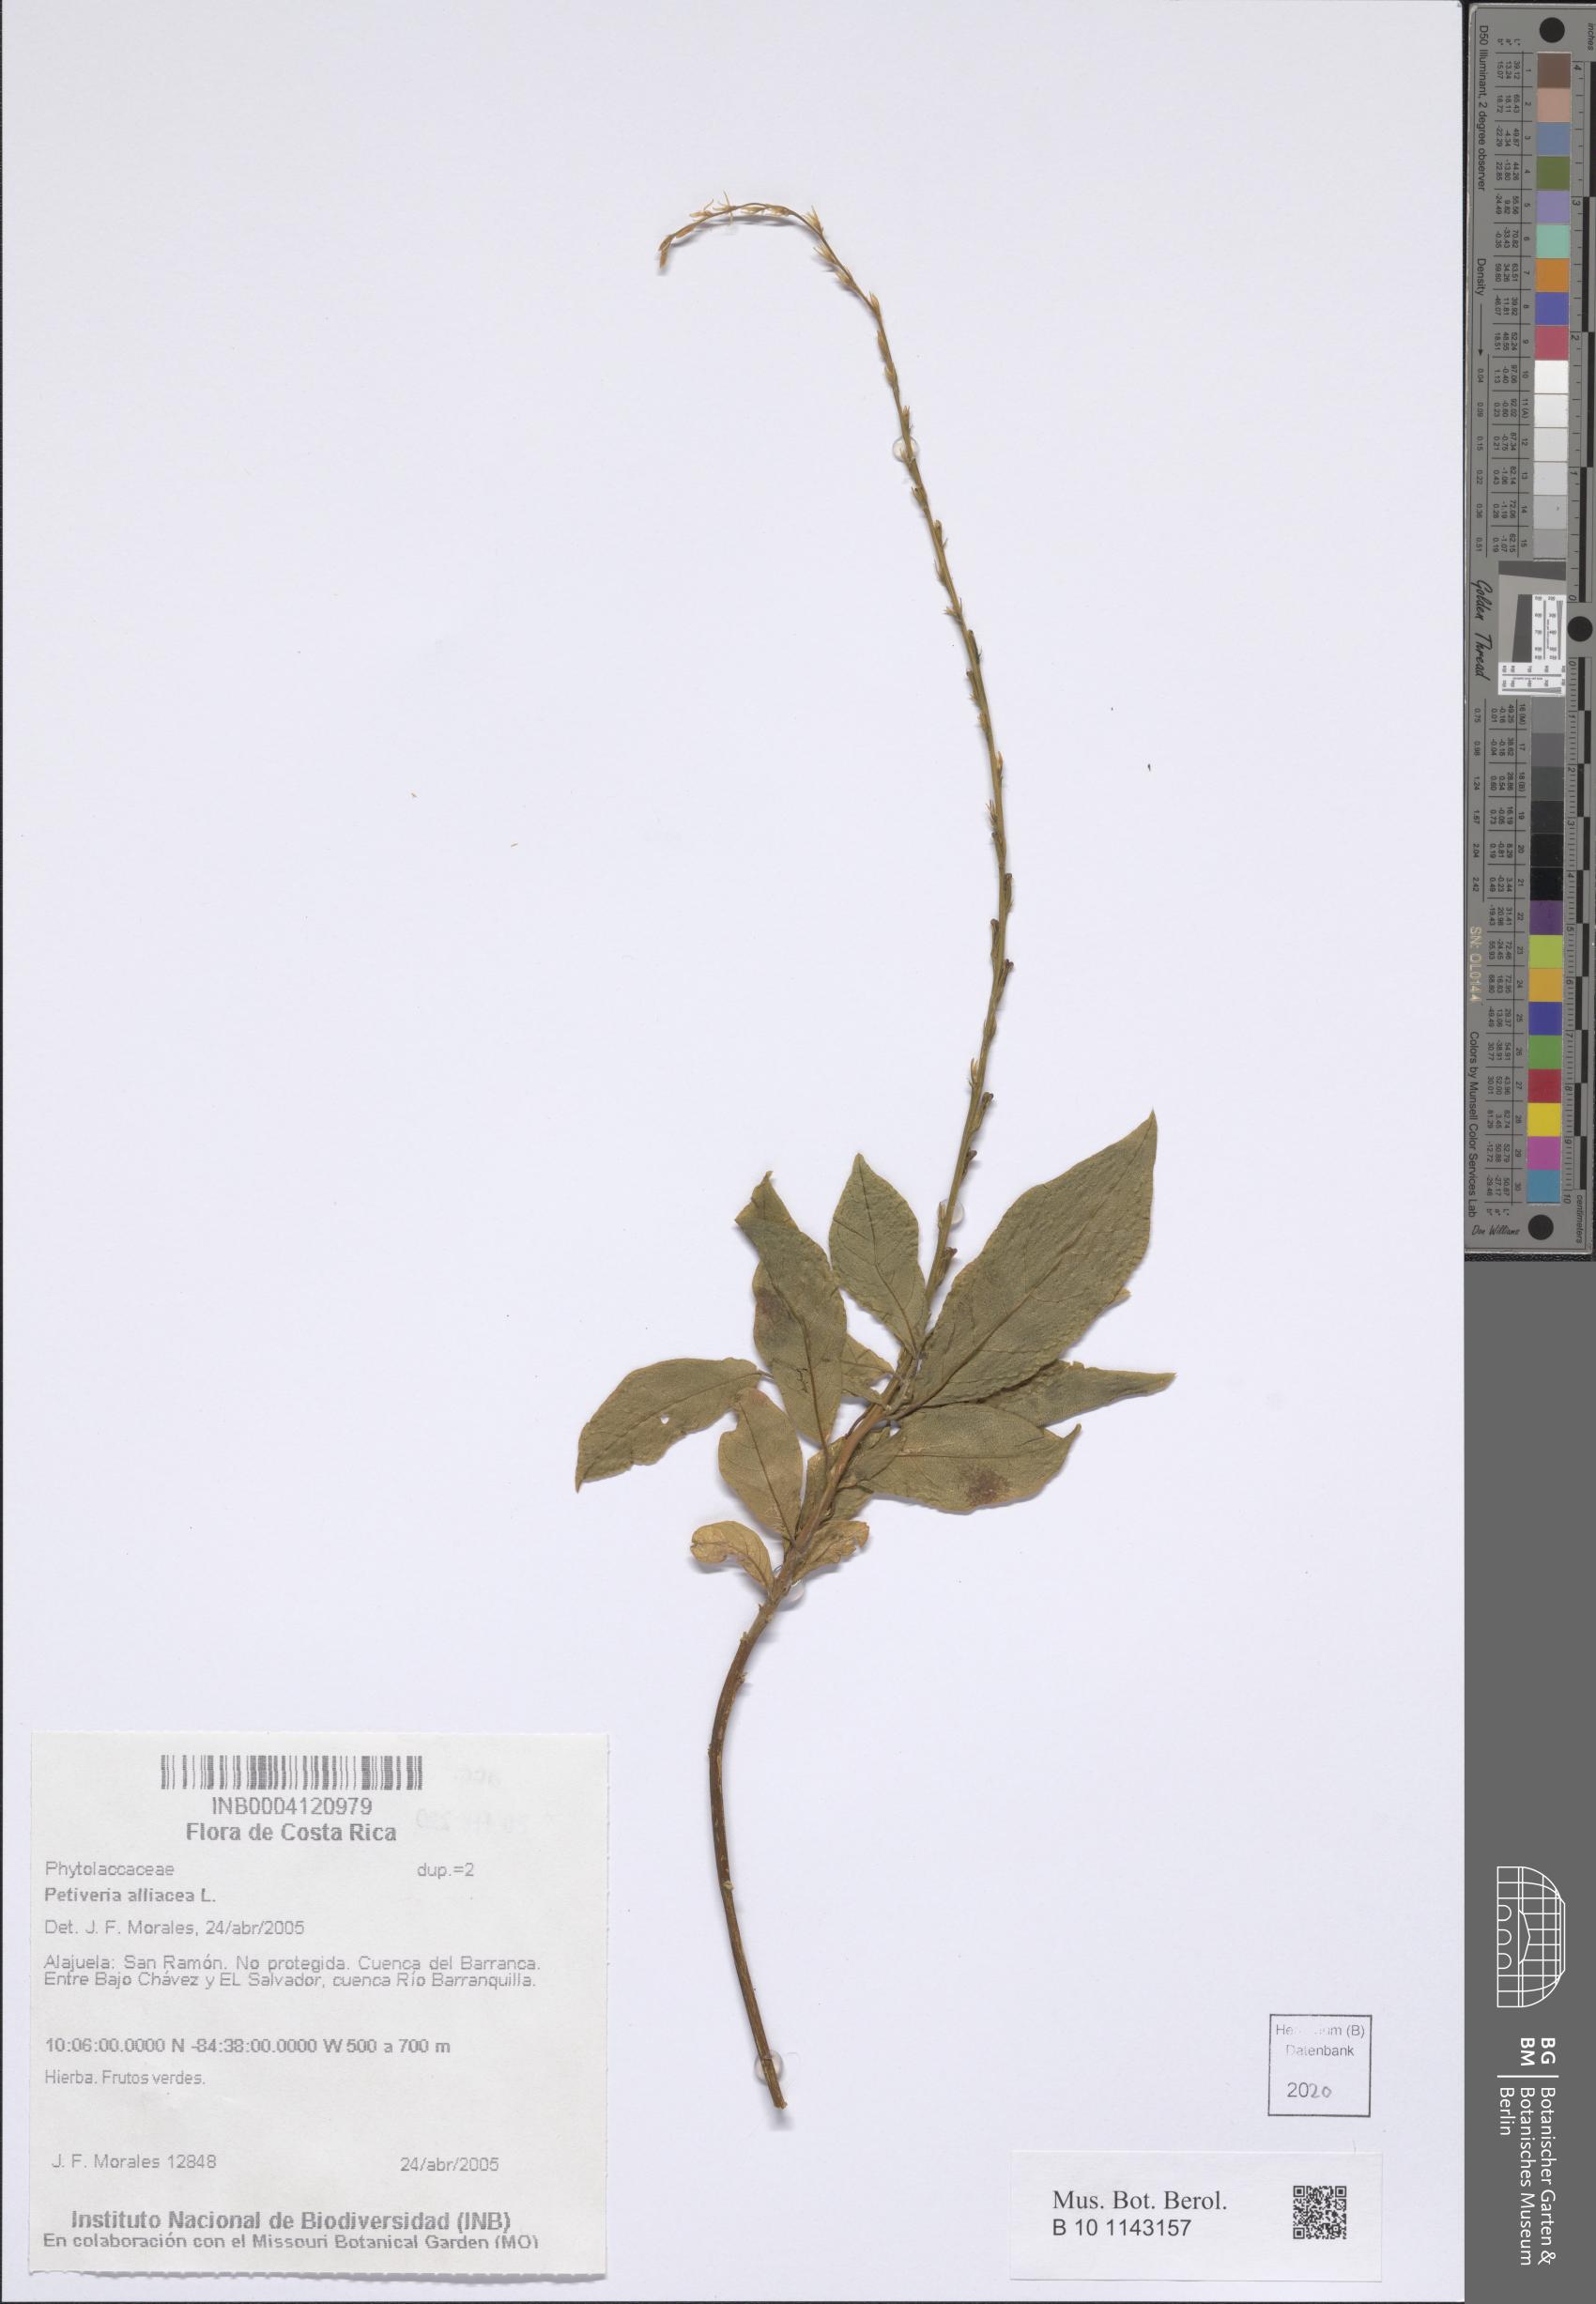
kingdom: Plantae
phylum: Tracheophyta
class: Magnoliopsida
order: Caryophyllales
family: Phytolaccaceae
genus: Petiveria
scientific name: Petiveria alliacea
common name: Garlicweed
